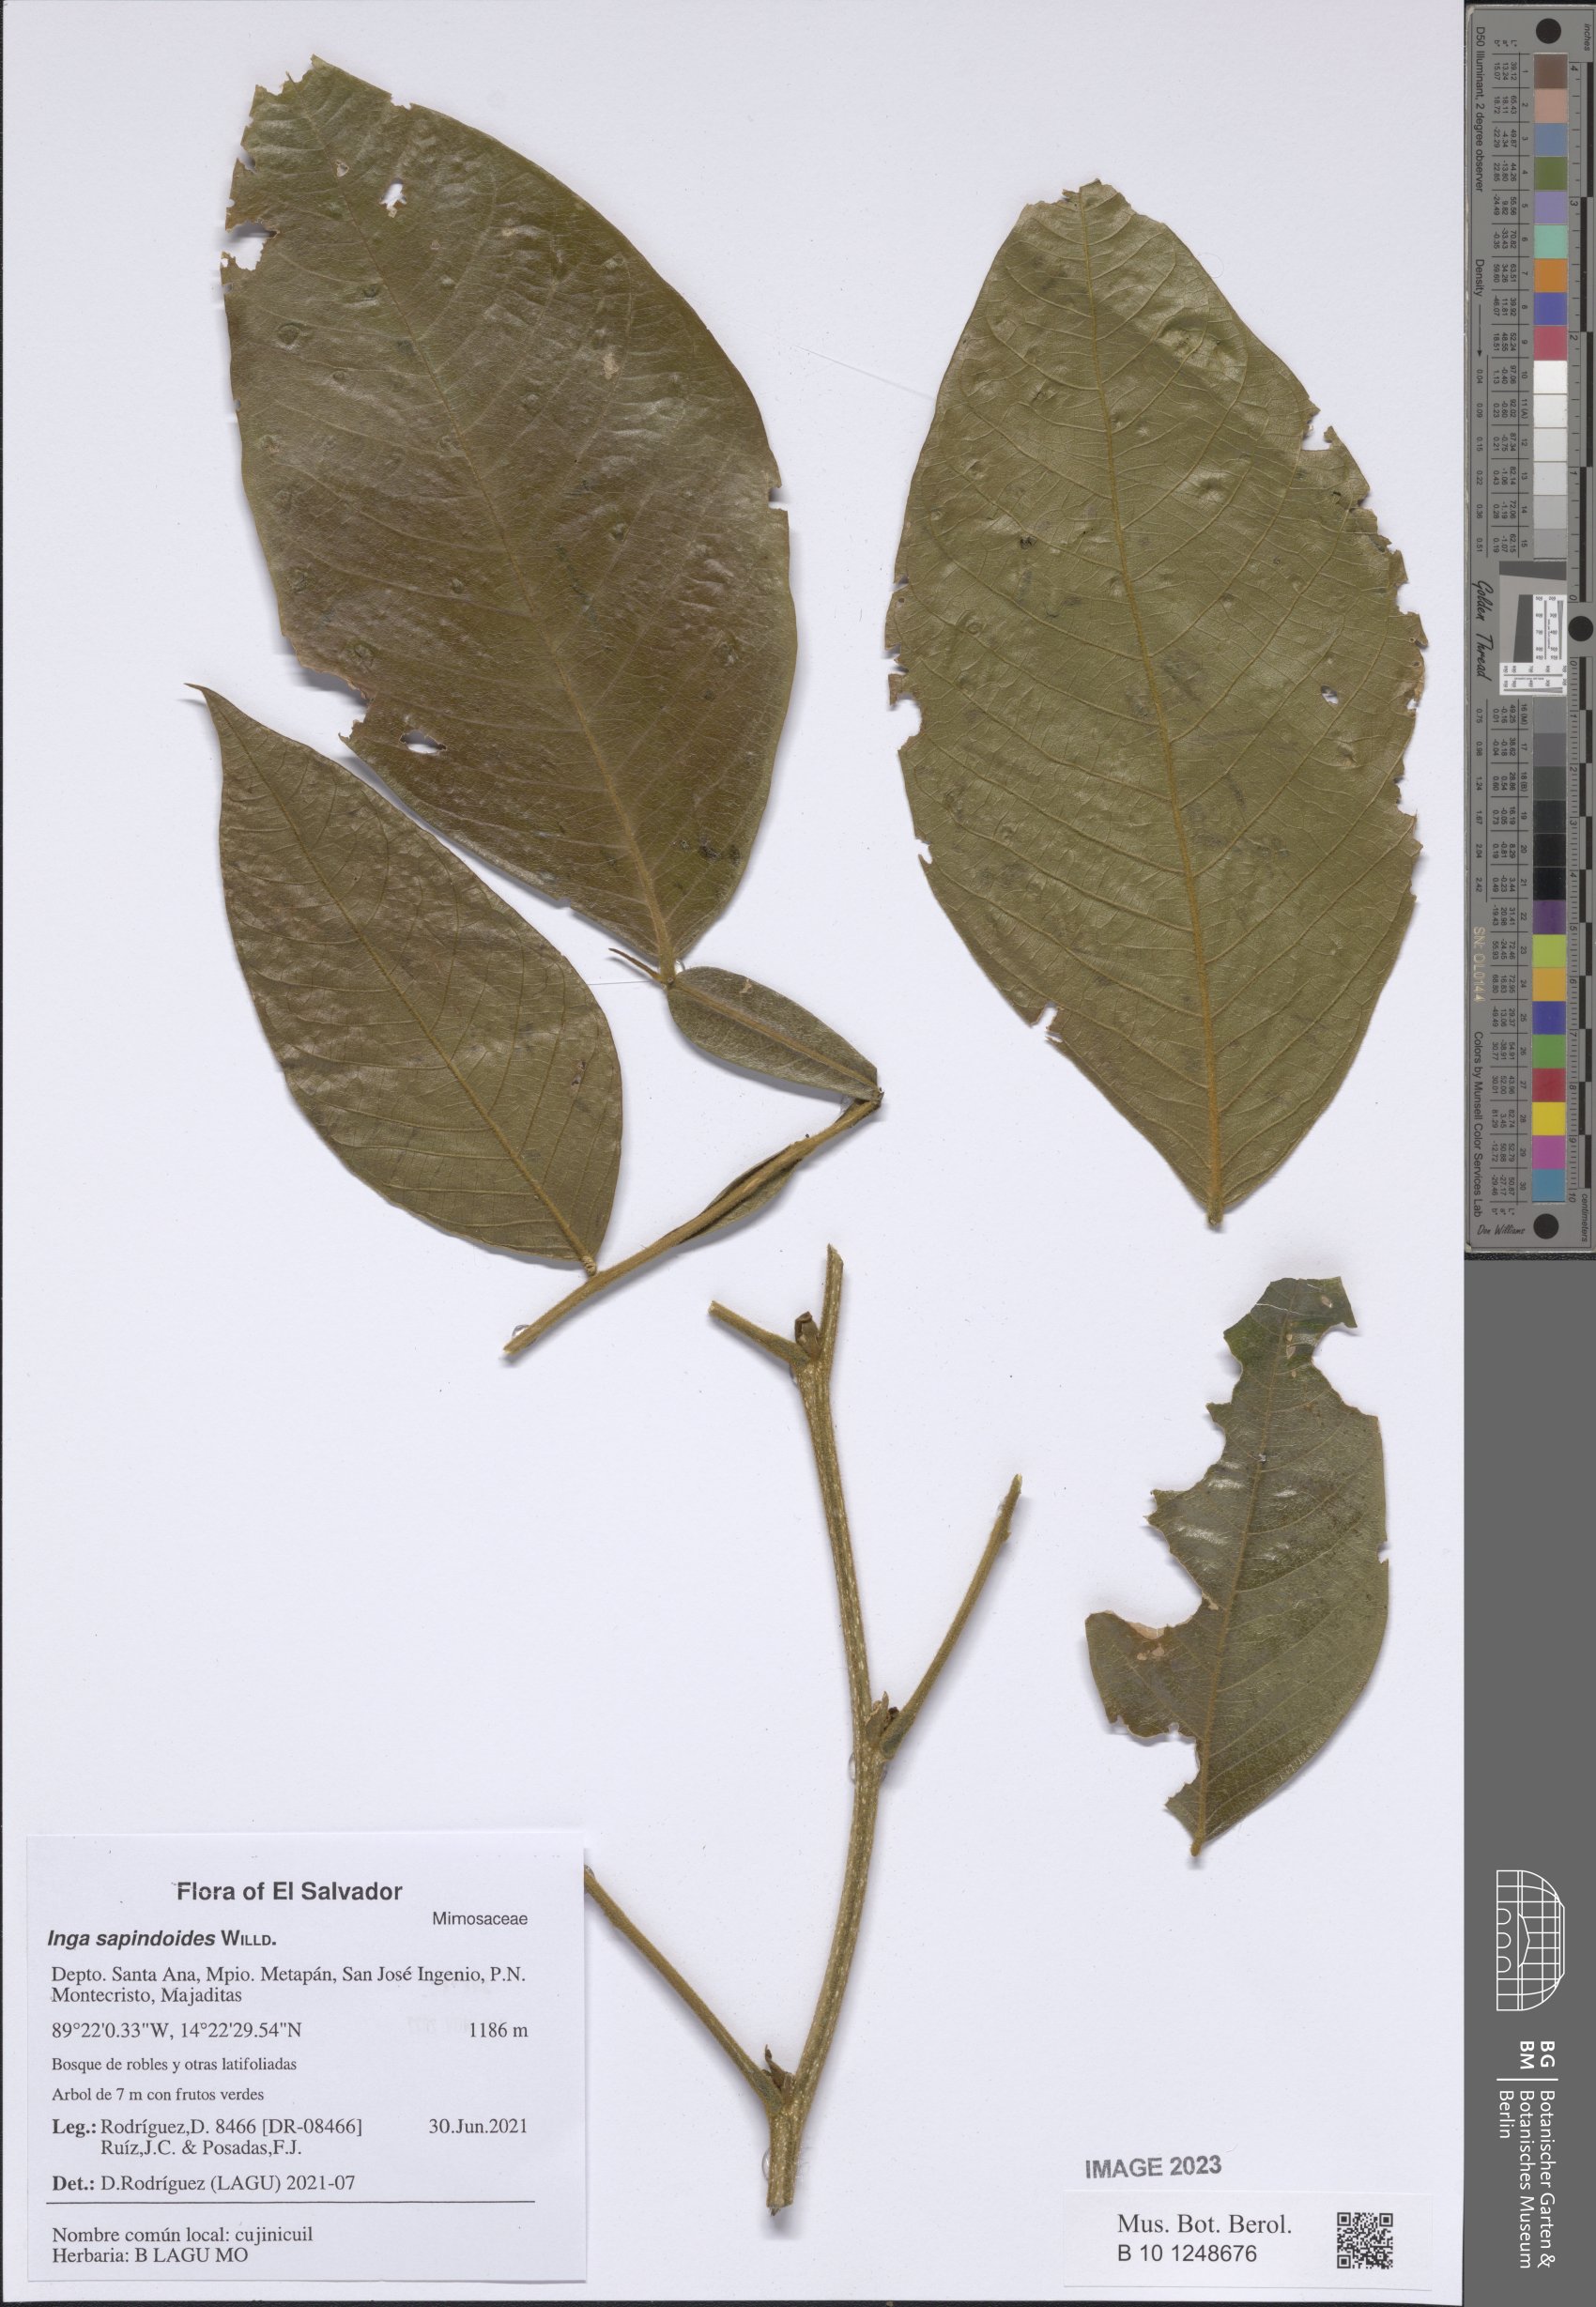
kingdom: Plantae
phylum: Tracheophyta
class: Magnoliopsida
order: Fabales
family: Fabaceae
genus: Inga
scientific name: Inga oerstediana
